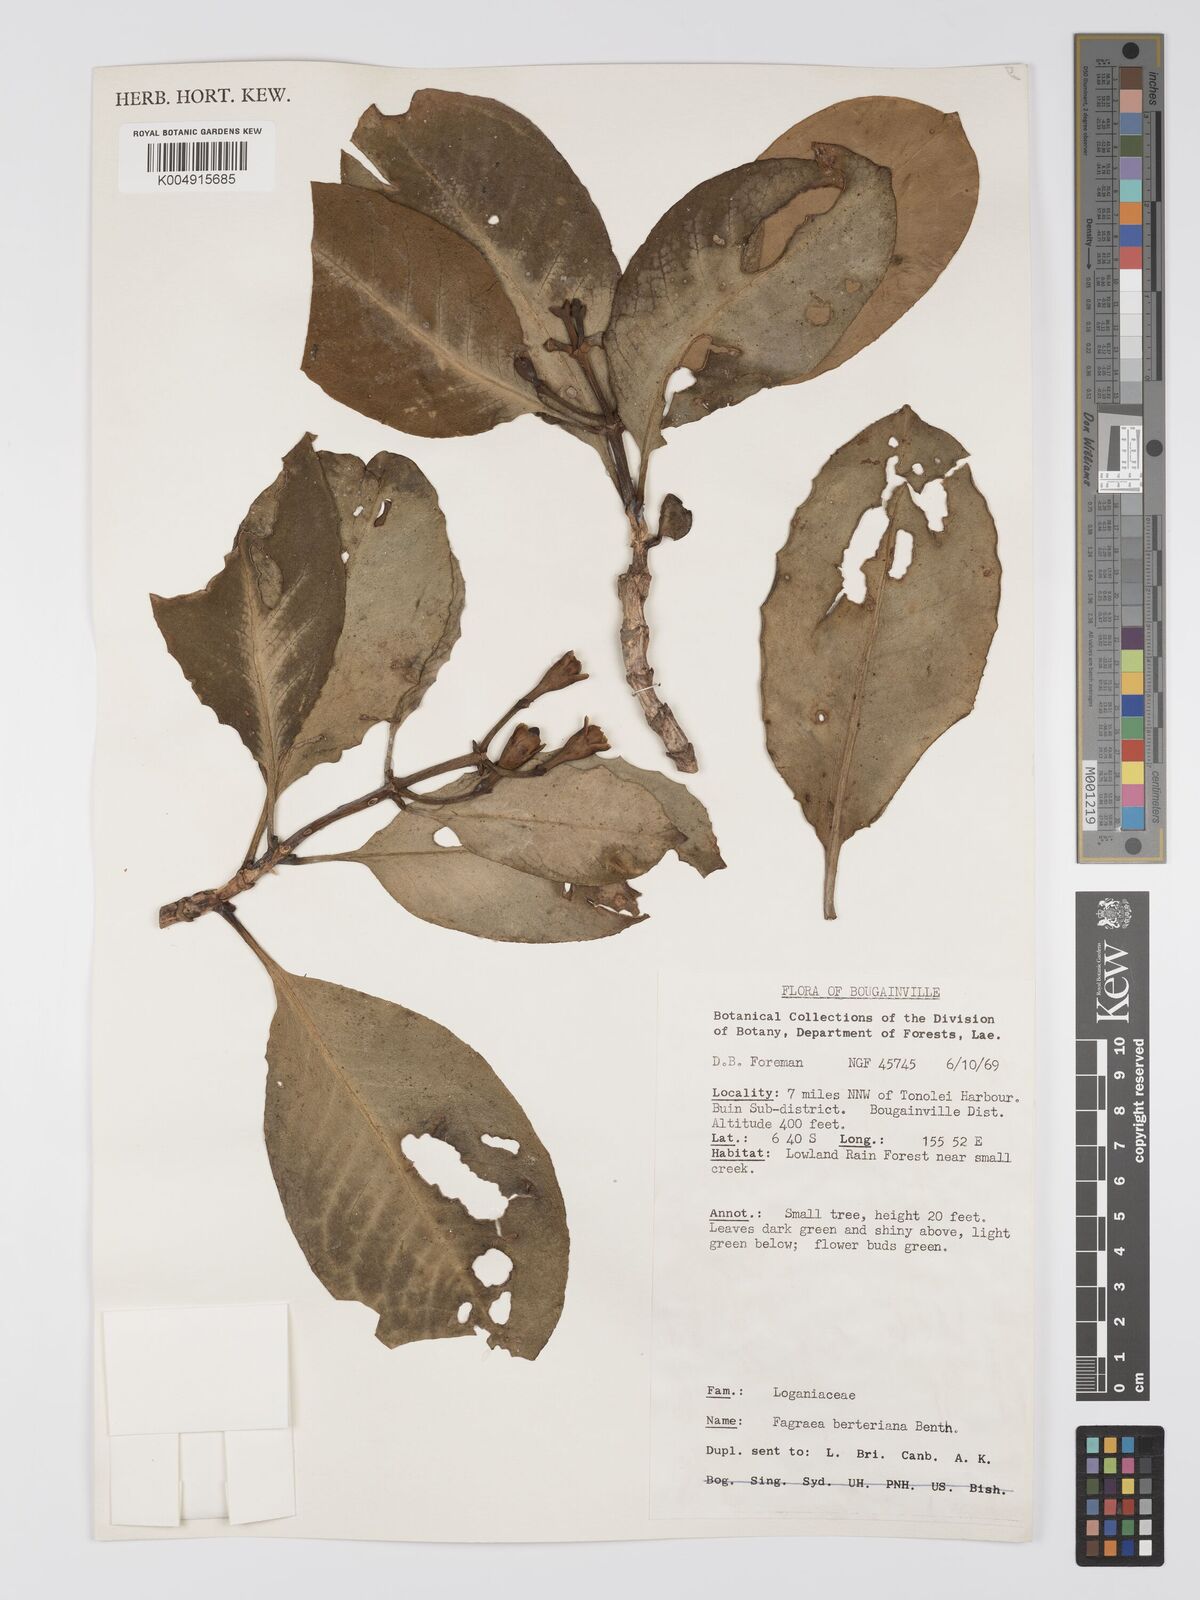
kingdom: Plantae
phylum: Tracheophyta
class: Magnoliopsida
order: Gentianales
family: Gentianaceae
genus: Fagraea
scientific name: Fagraea berteroana
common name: Cape jitta
